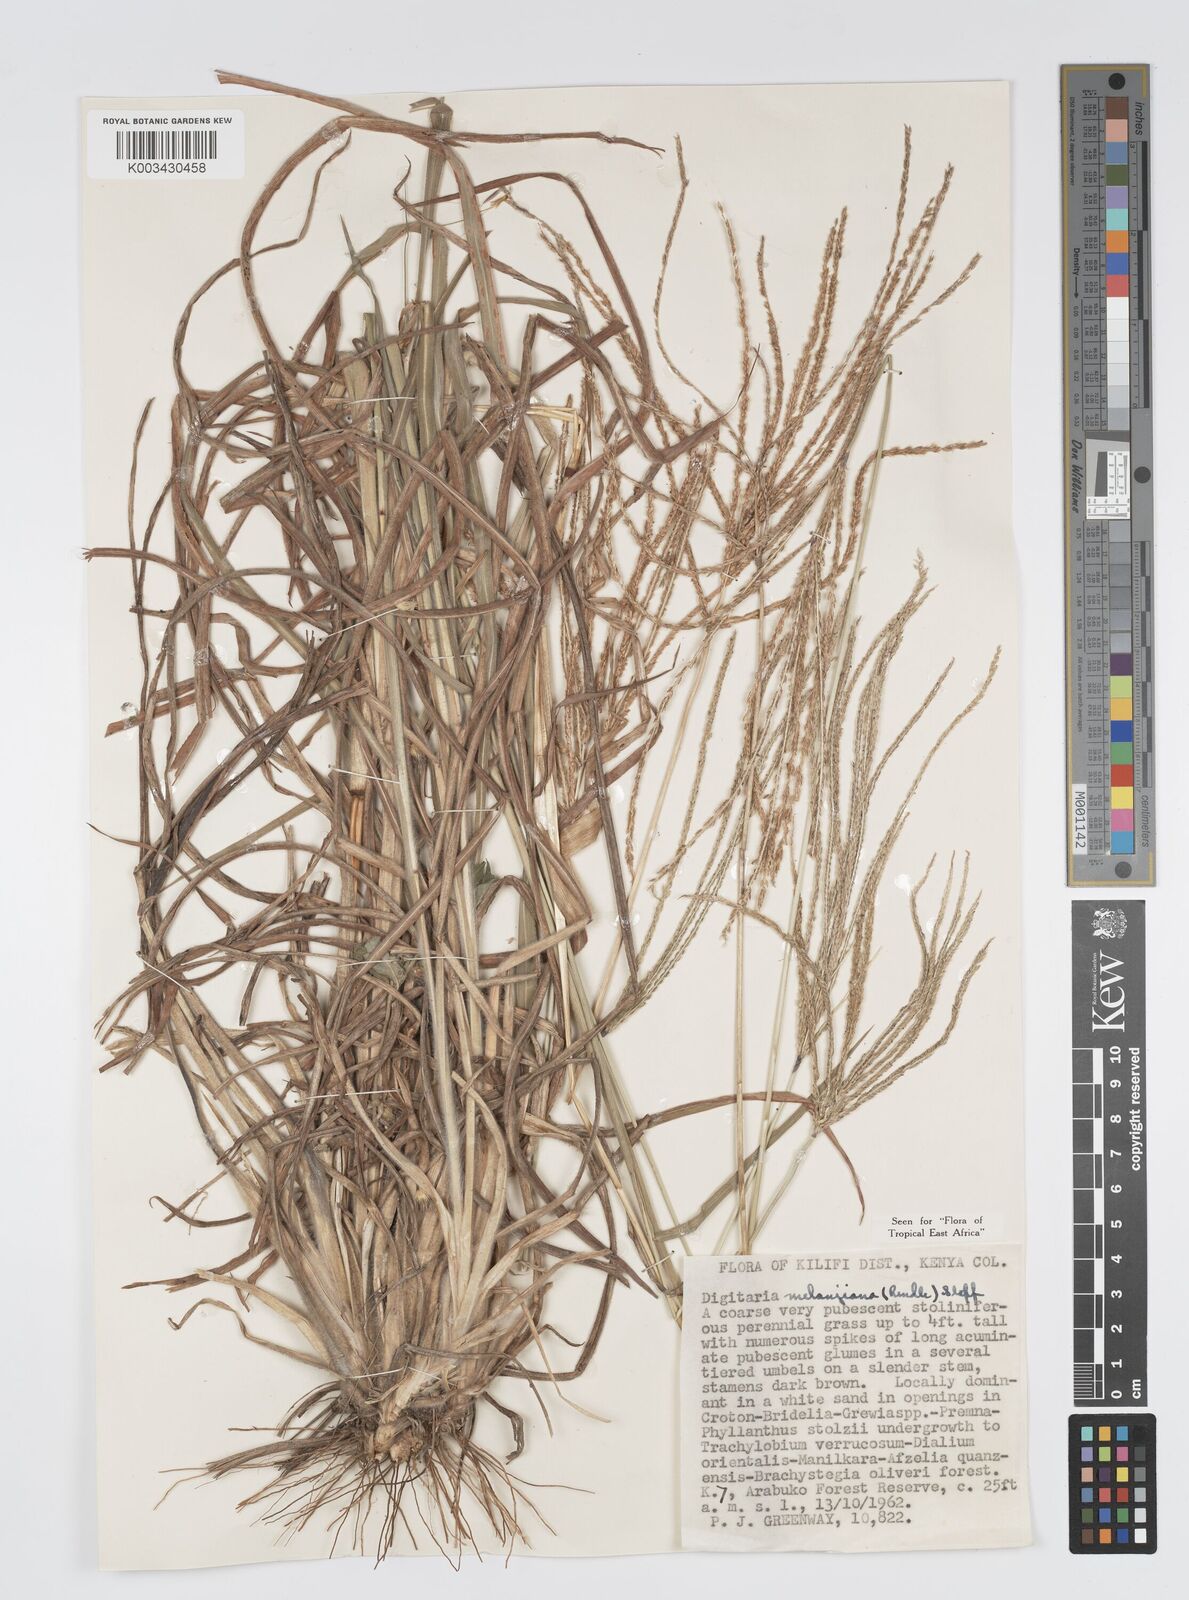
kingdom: Plantae
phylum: Tracheophyta
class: Liliopsida
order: Poales
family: Poaceae
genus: Digitaria
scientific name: Digitaria milanjiana
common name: Madagascar crabgrass
